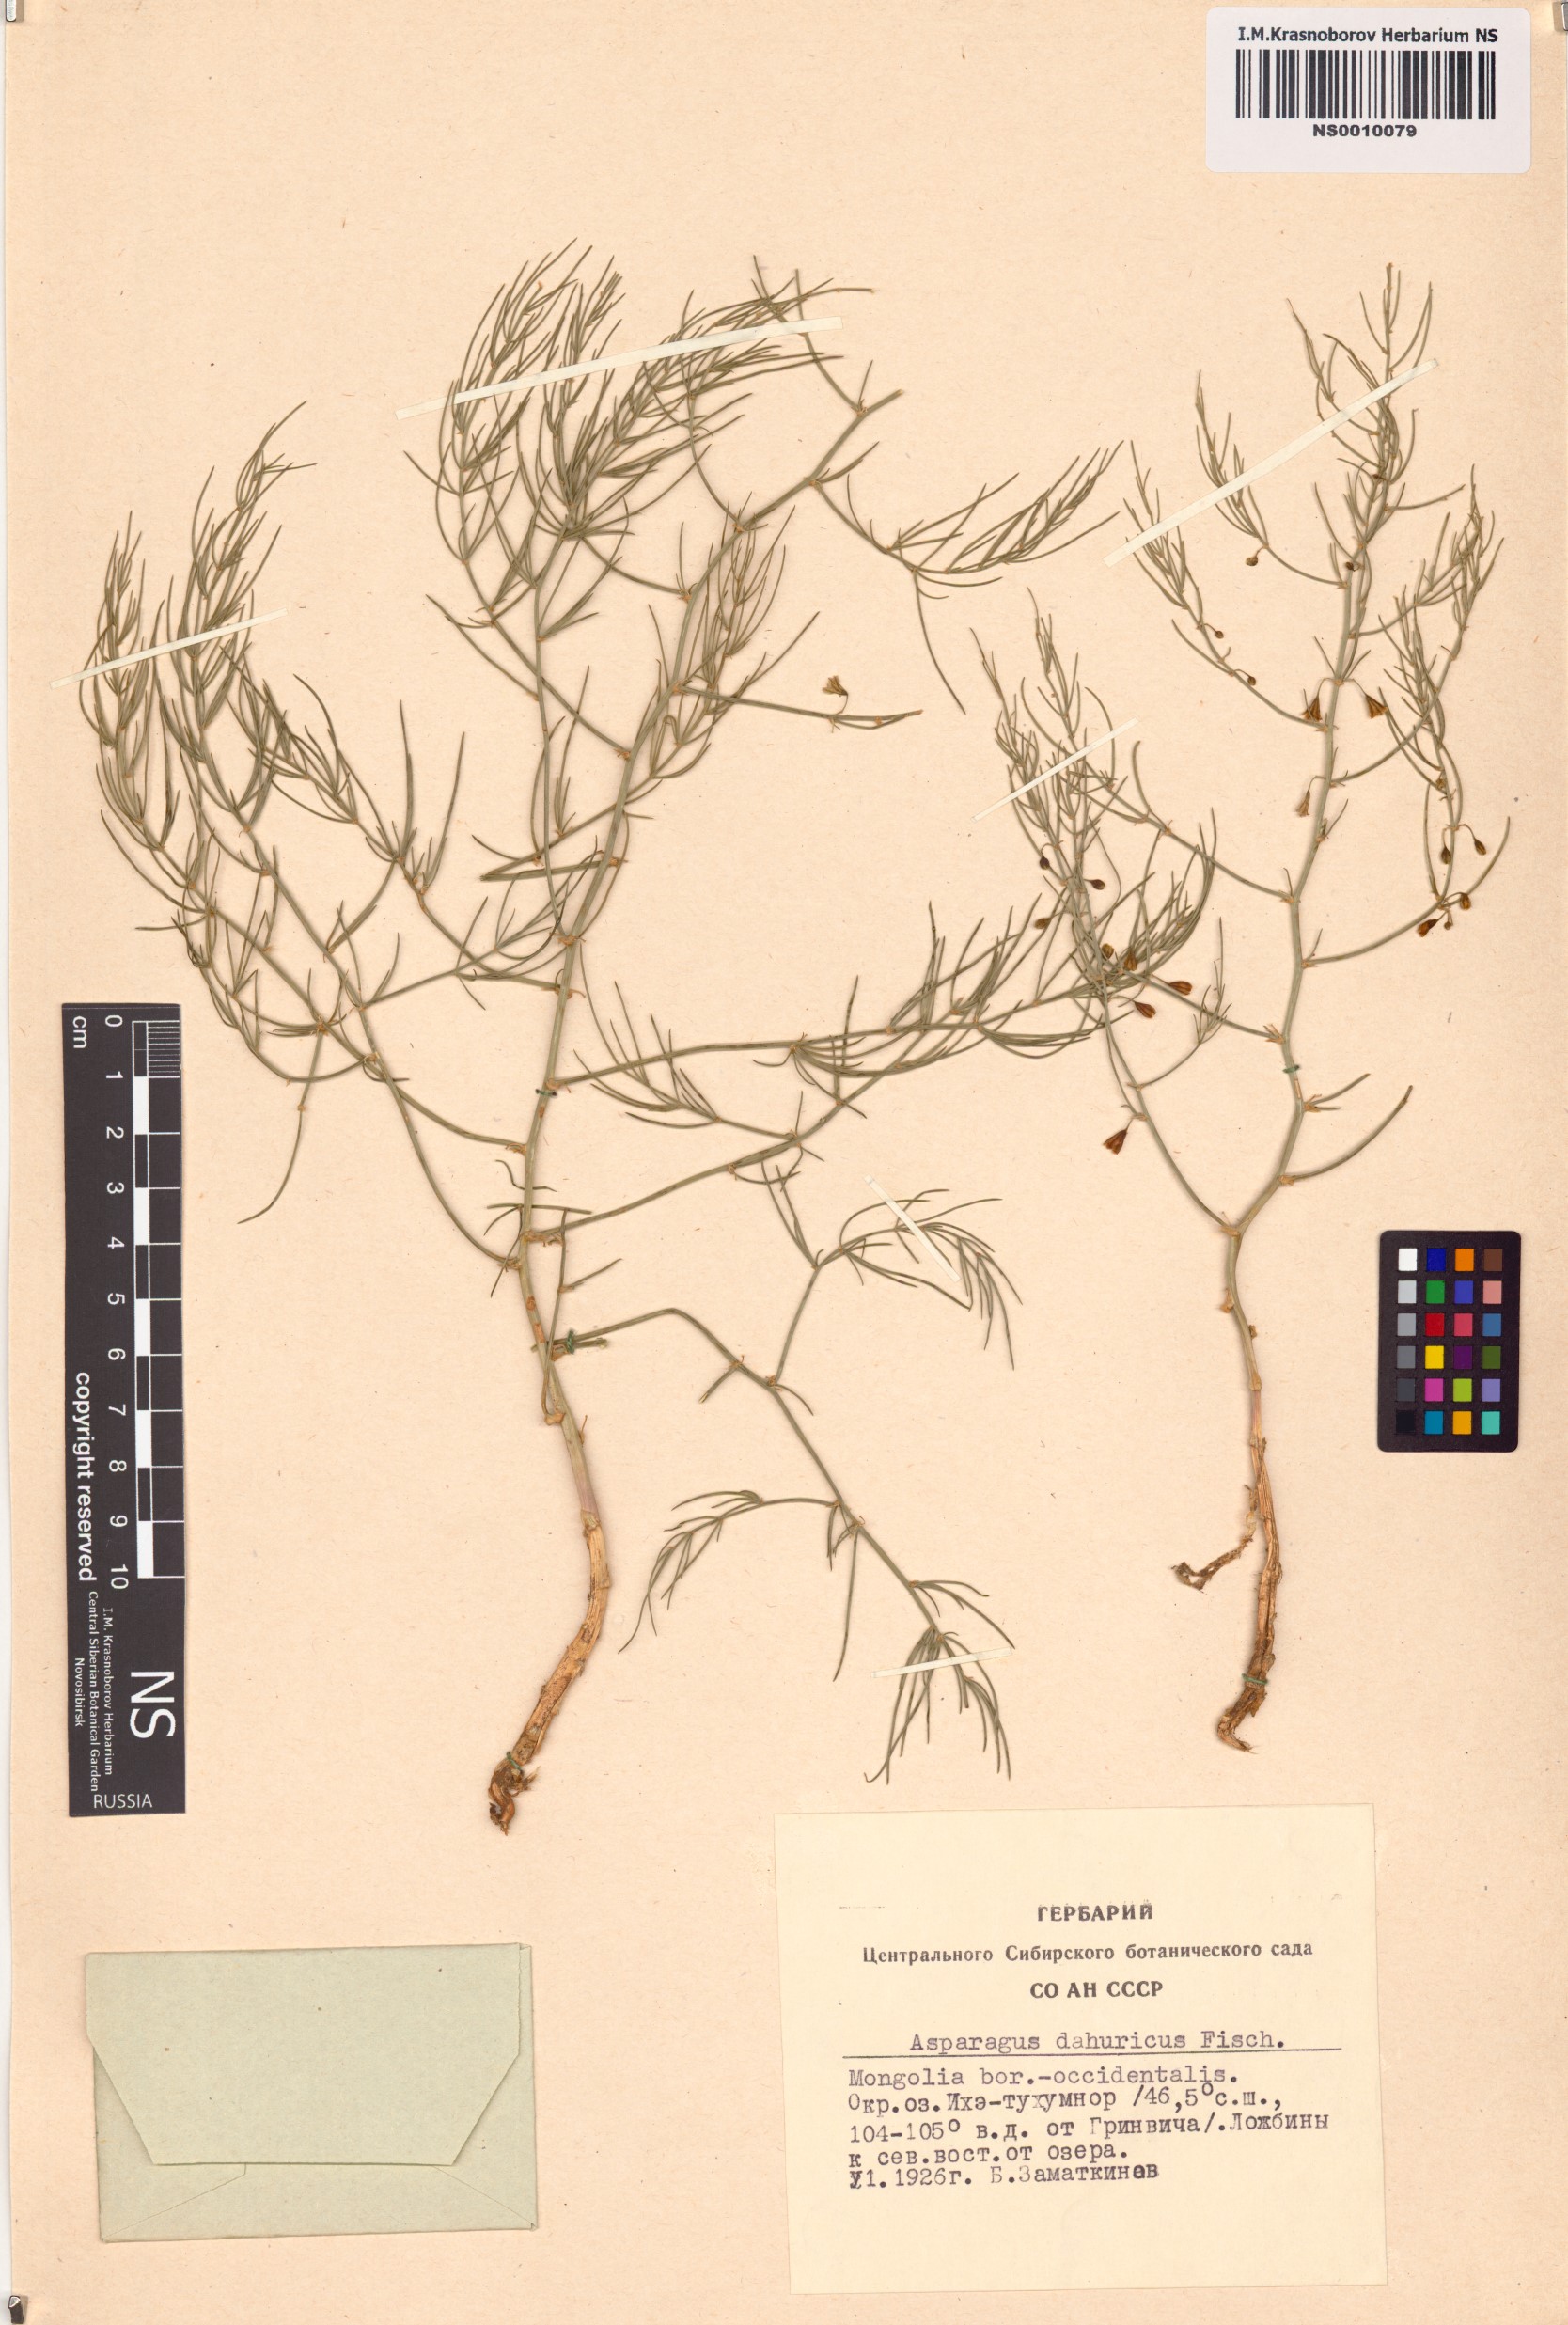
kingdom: Plantae
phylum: Tracheophyta
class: Liliopsida
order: Asparagales
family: Asparagaceae
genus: Asparagus
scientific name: Asparagus dauricus
